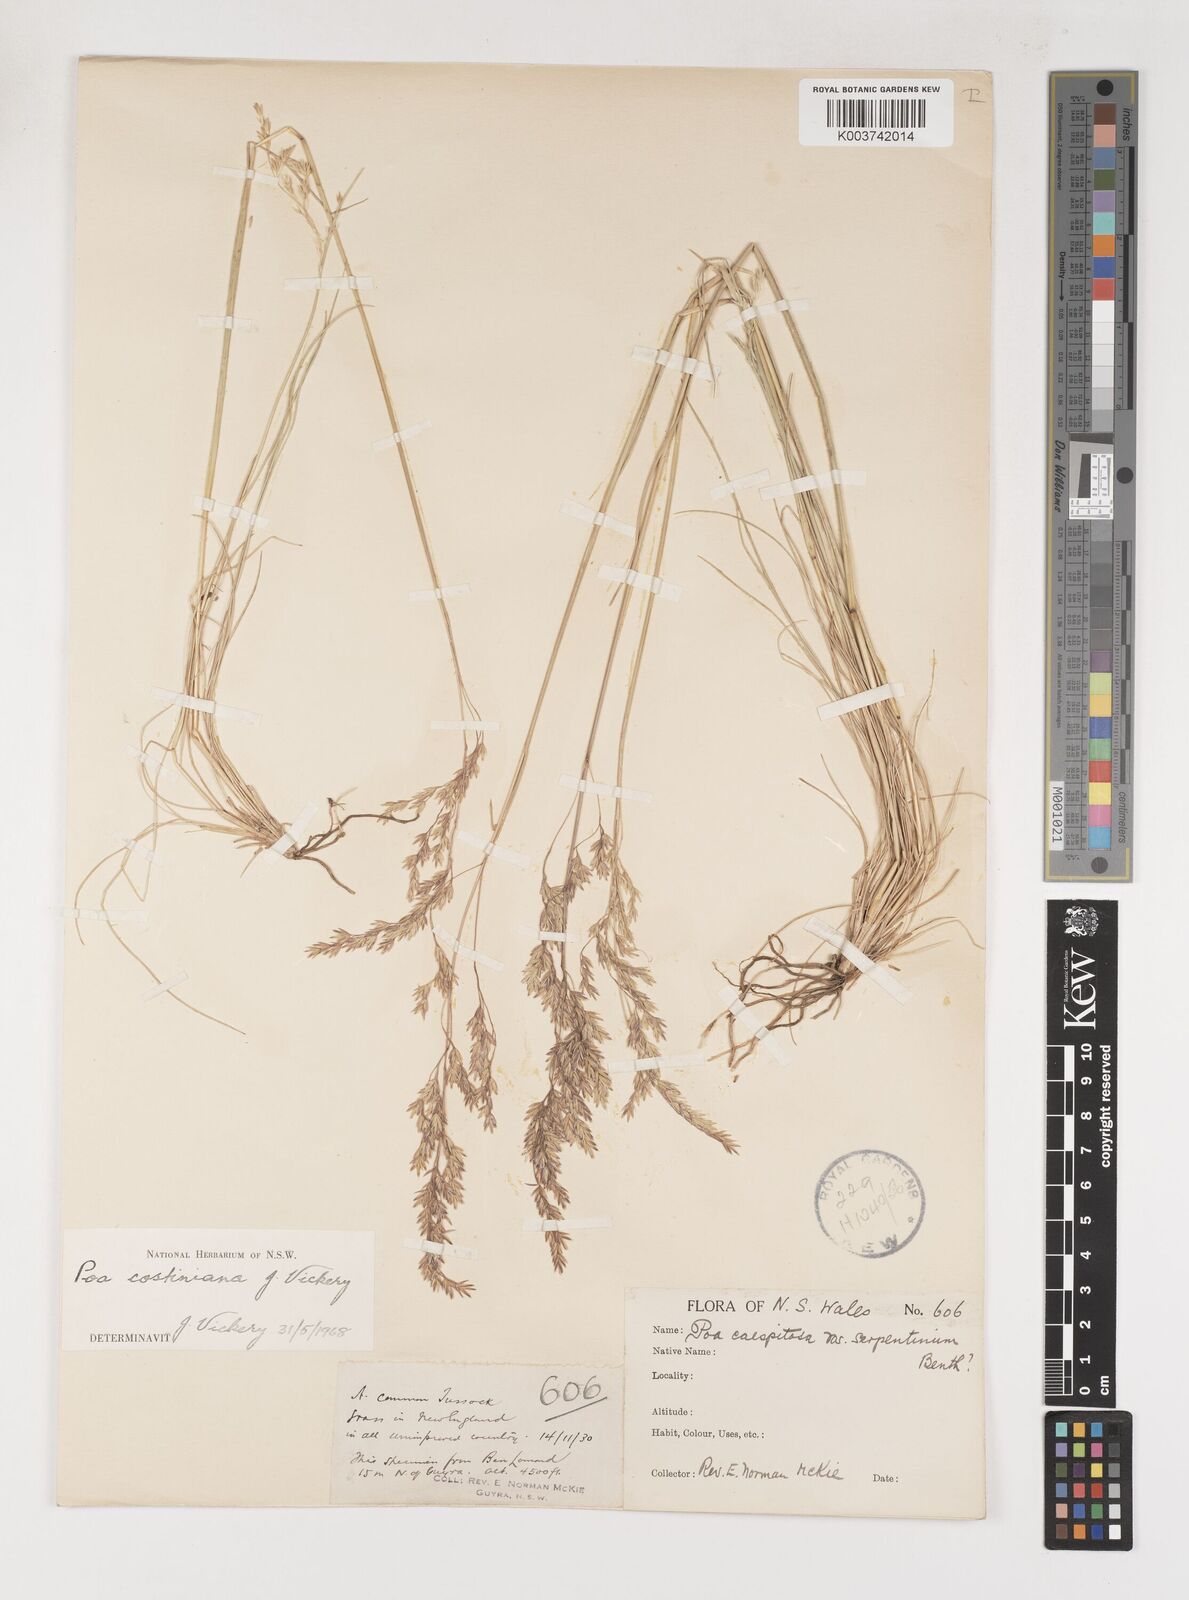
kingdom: Plantae
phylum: Tracheophyta
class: Liliopsida
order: Poales
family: Poaceae
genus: Poa
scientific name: Poa costiniana
